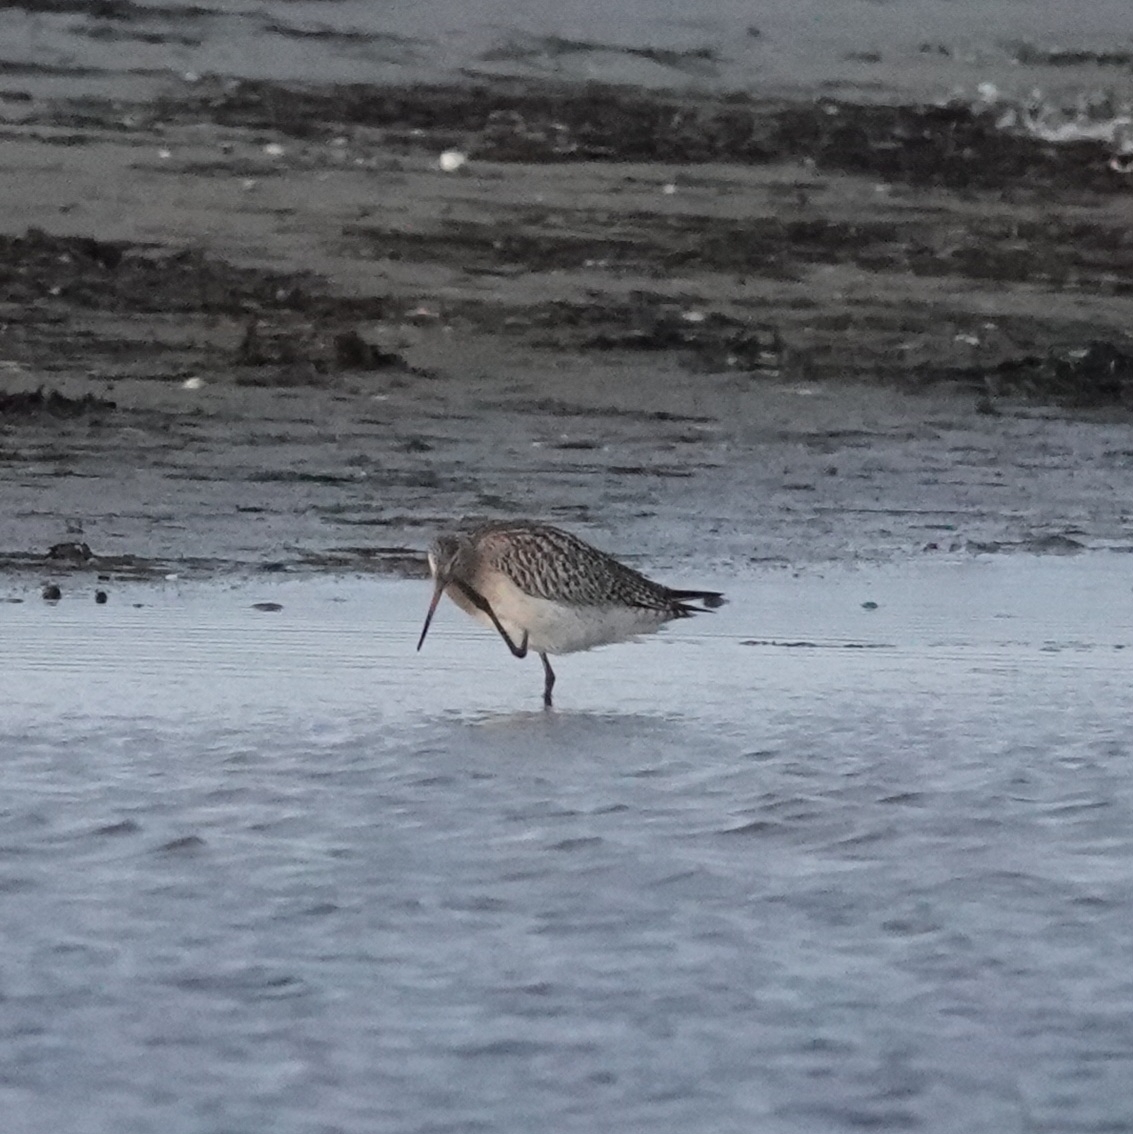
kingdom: Animalia
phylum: Chordata
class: Aves
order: Charadriiformes
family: Scolopacidae
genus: Limosa
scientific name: Limosa lapponica
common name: Lille kobbersneppe
